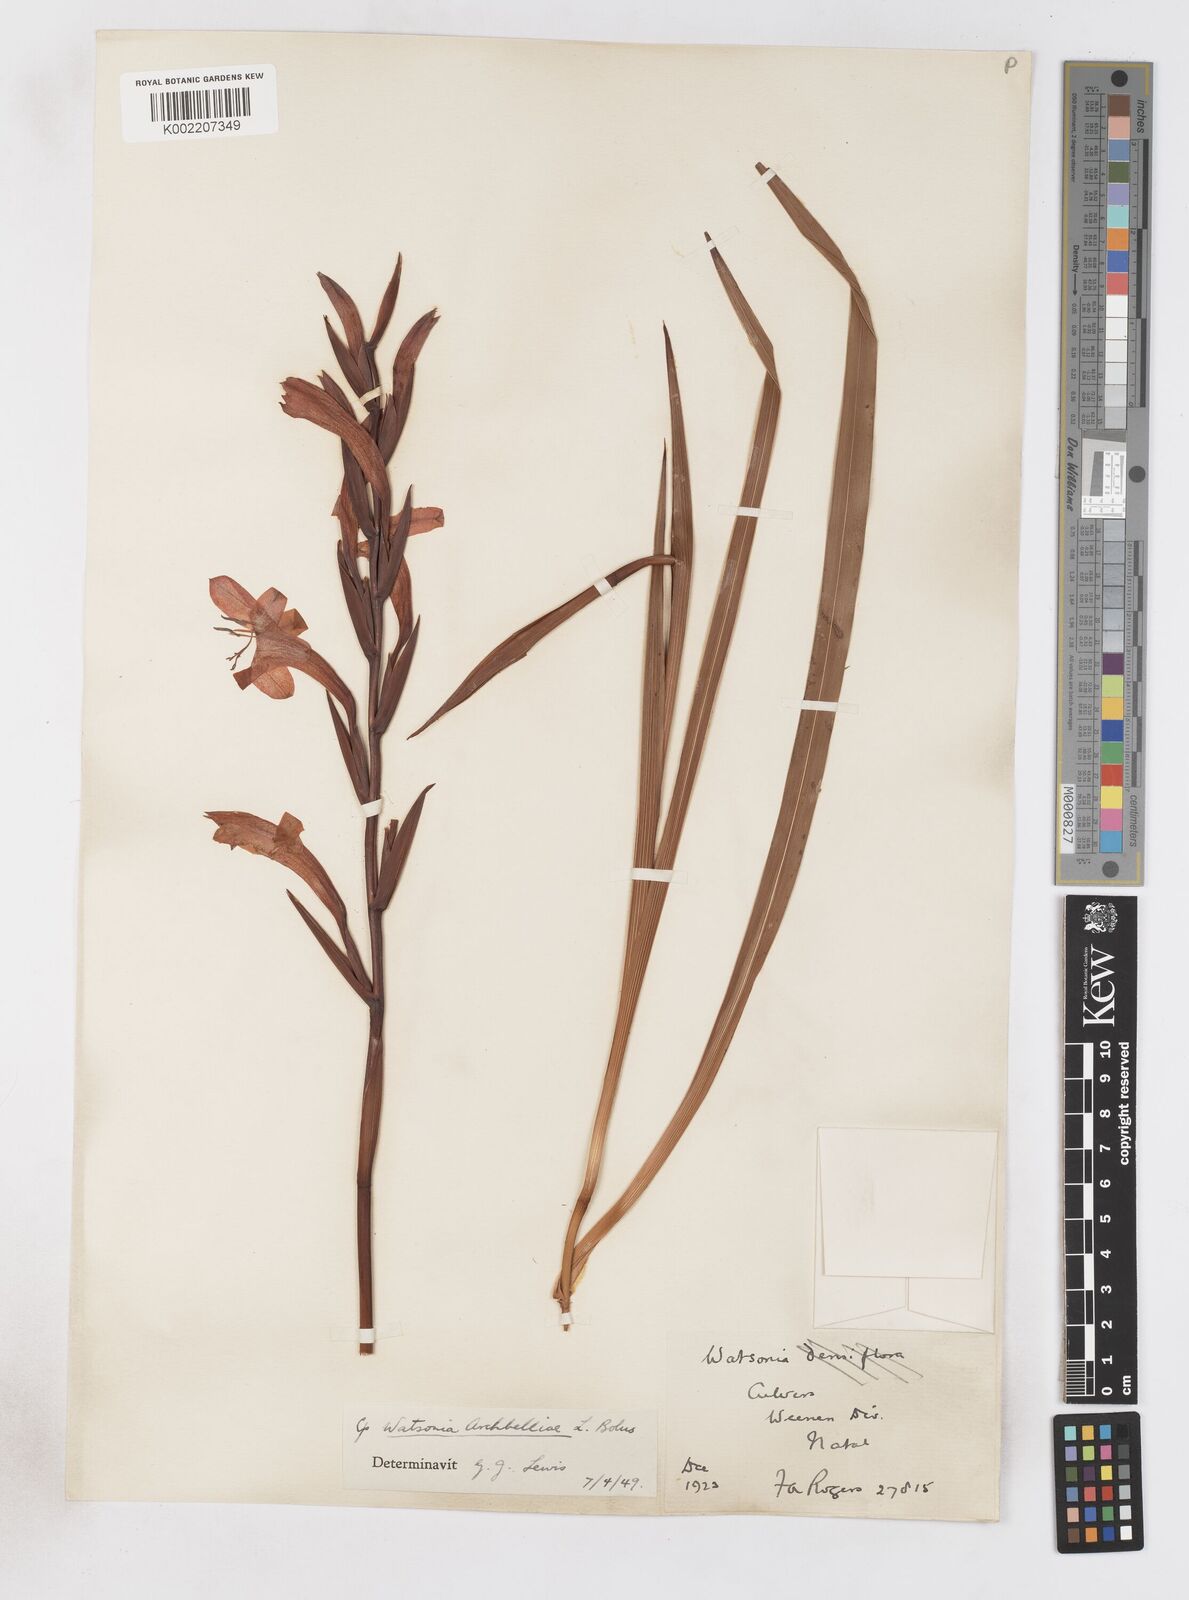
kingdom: Plantae
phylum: Tracheophyta
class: Liliopsida
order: Asparagales
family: Iridaceae
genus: Watsonia
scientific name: Watsonia pillansii
